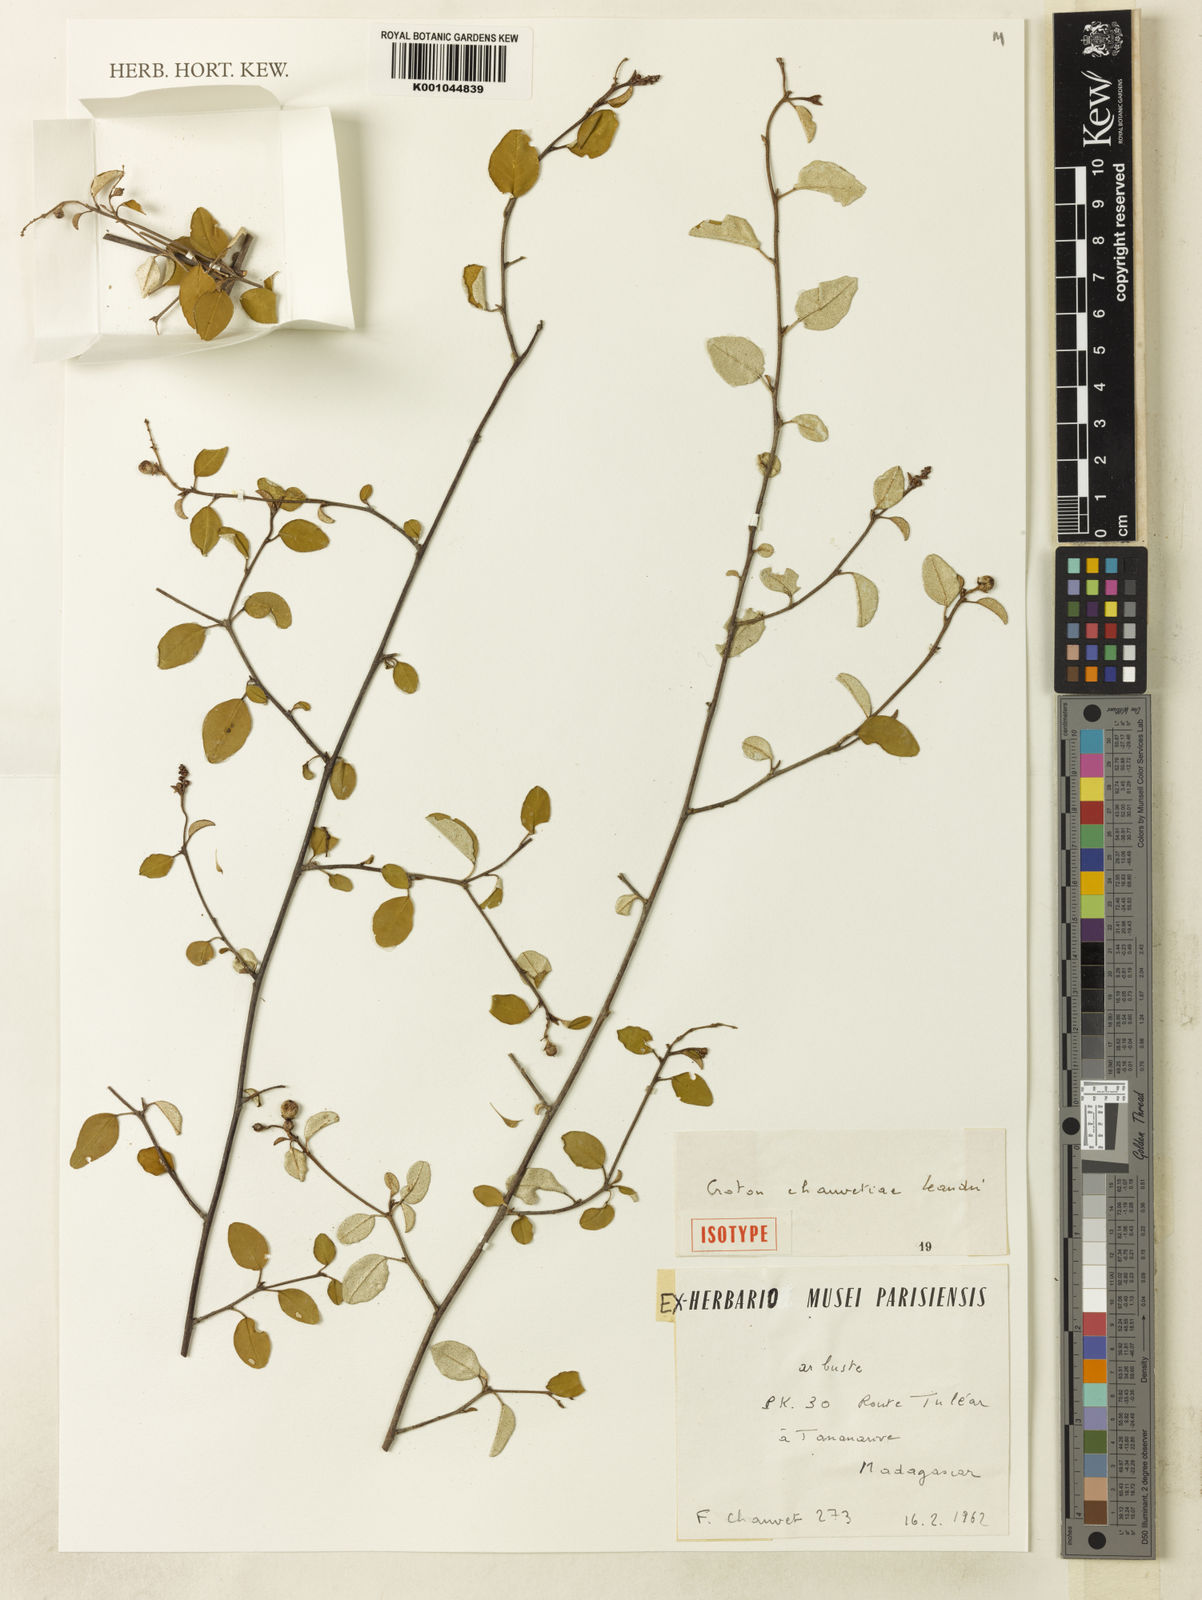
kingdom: Plantae
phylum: Tracheophyta
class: Magnoliopsida
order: Malpighiales
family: Euphorbiaceae
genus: Croton
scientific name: Croton chauvetiae
